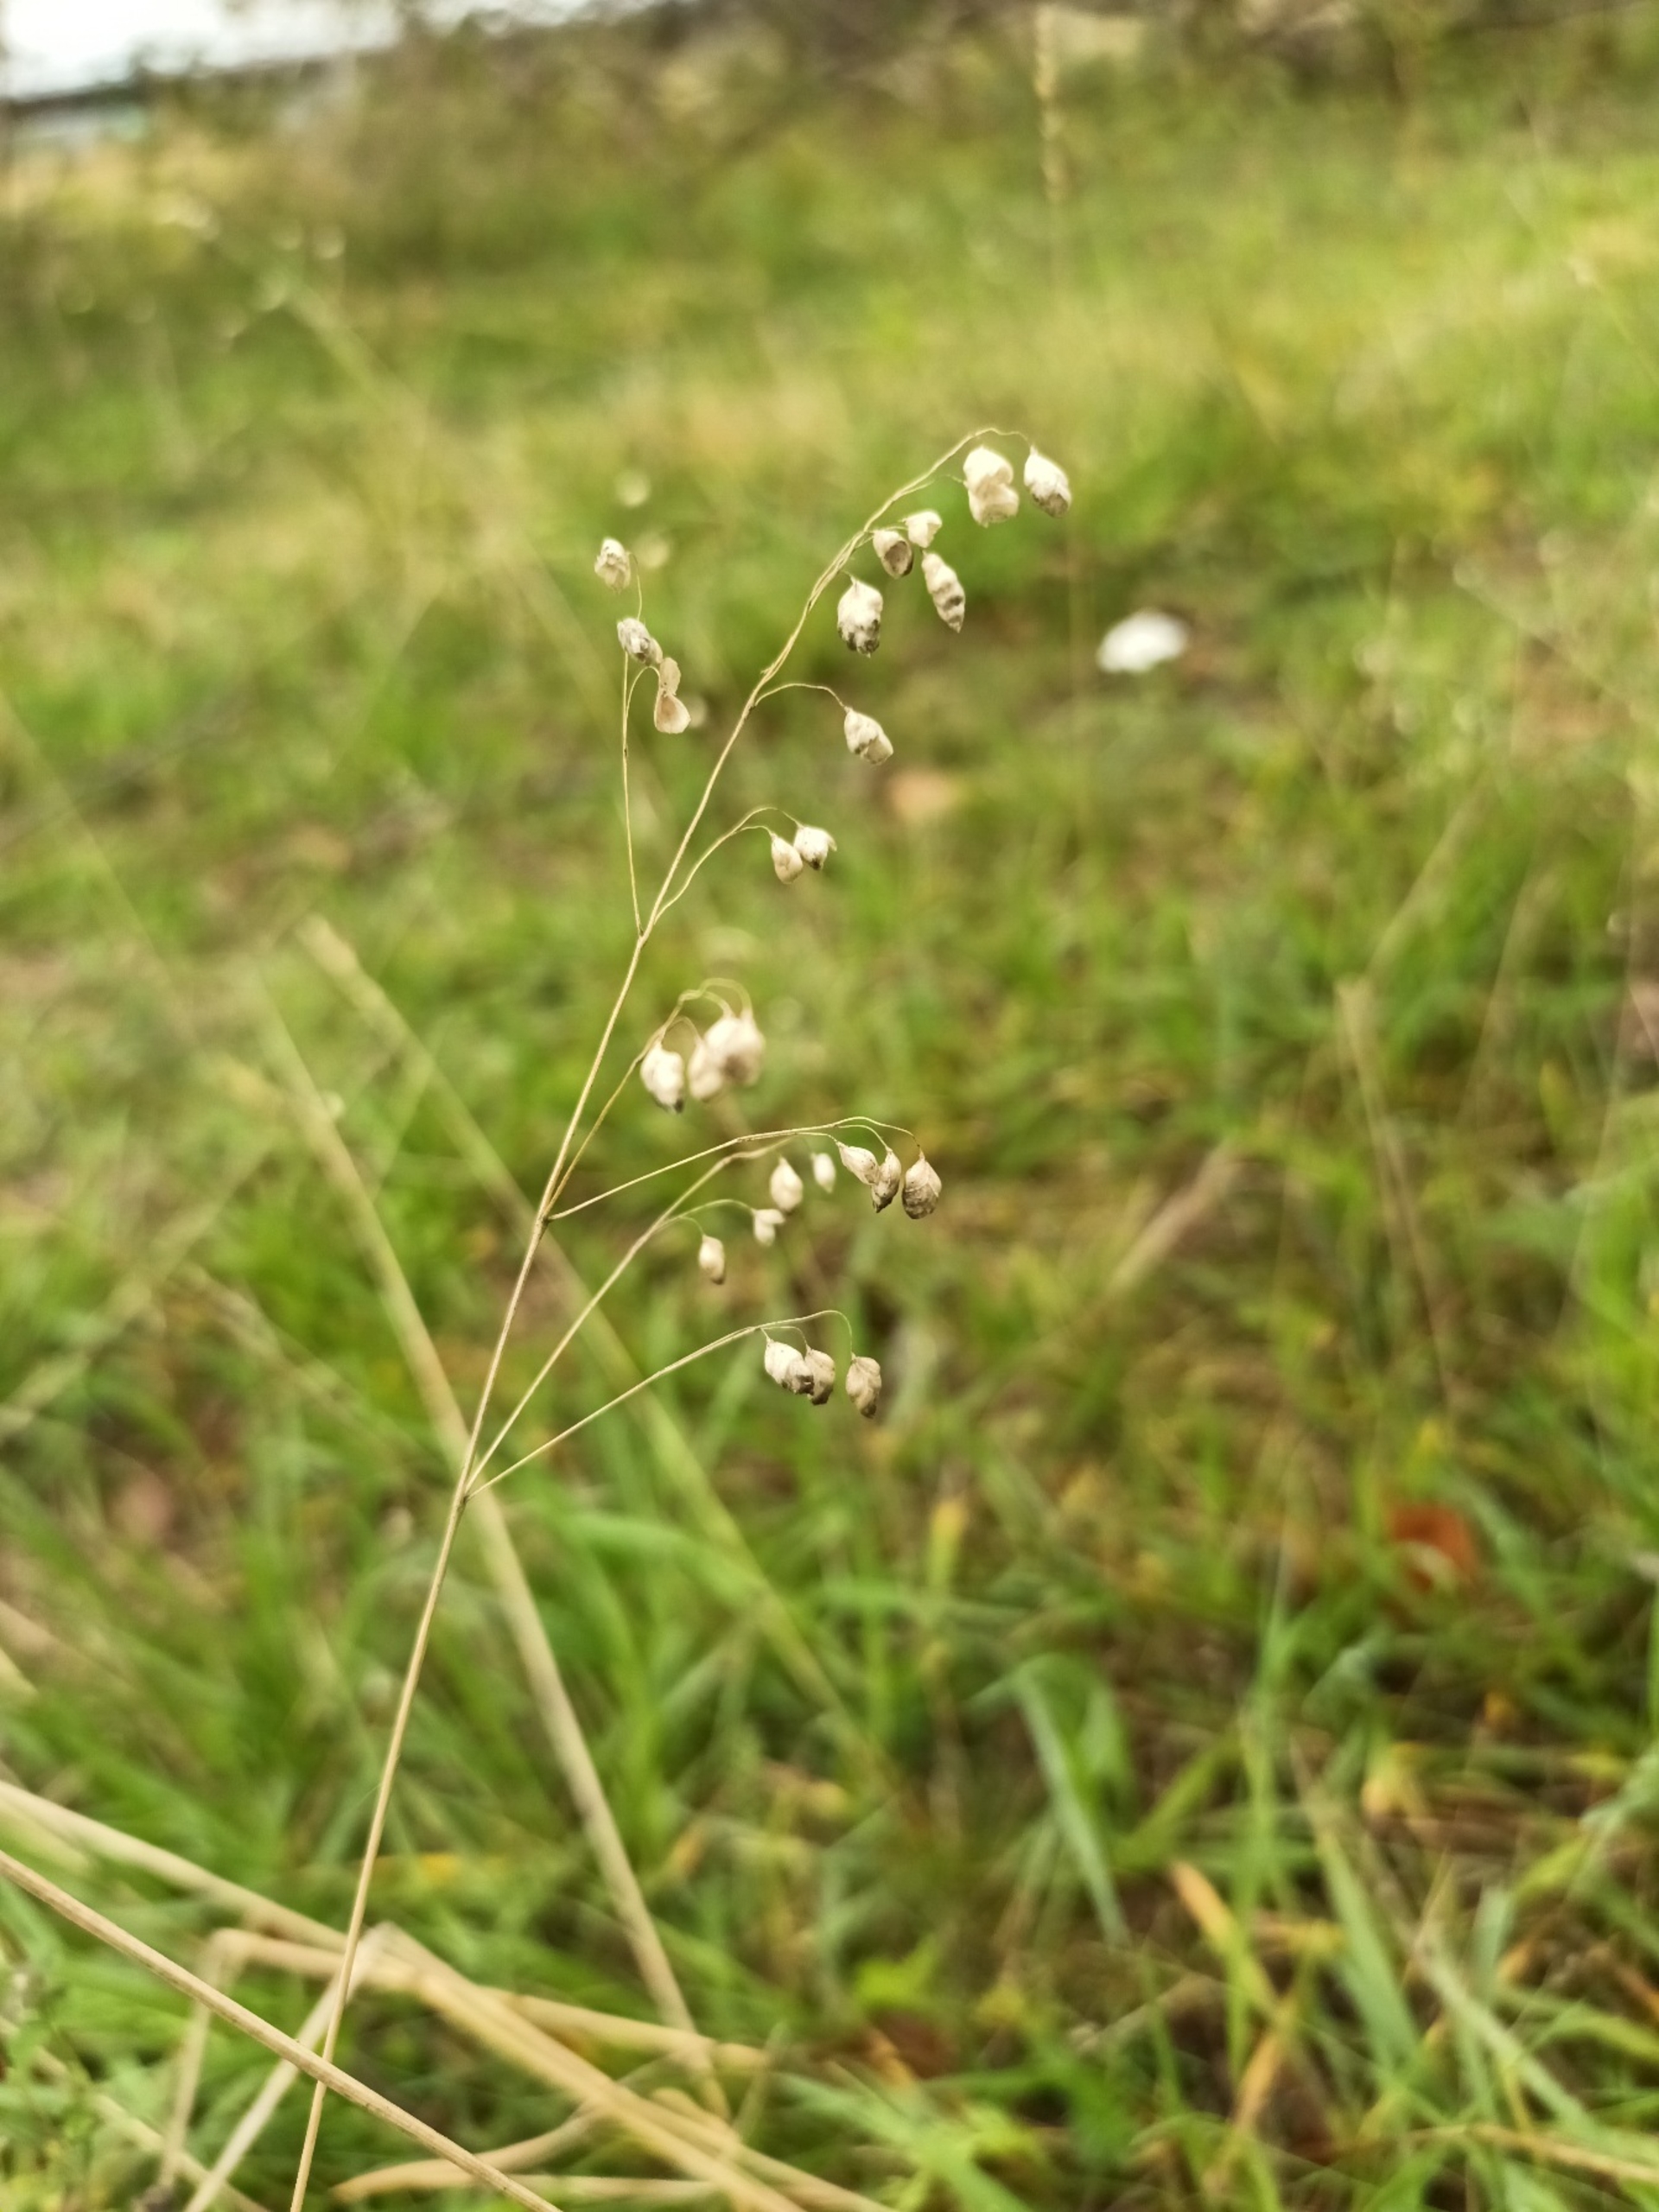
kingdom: Plantae
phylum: Tracheophyta
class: Liliopsida
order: Poales
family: Poaceae
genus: Briza
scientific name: Briza media
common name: Hjertegræs
